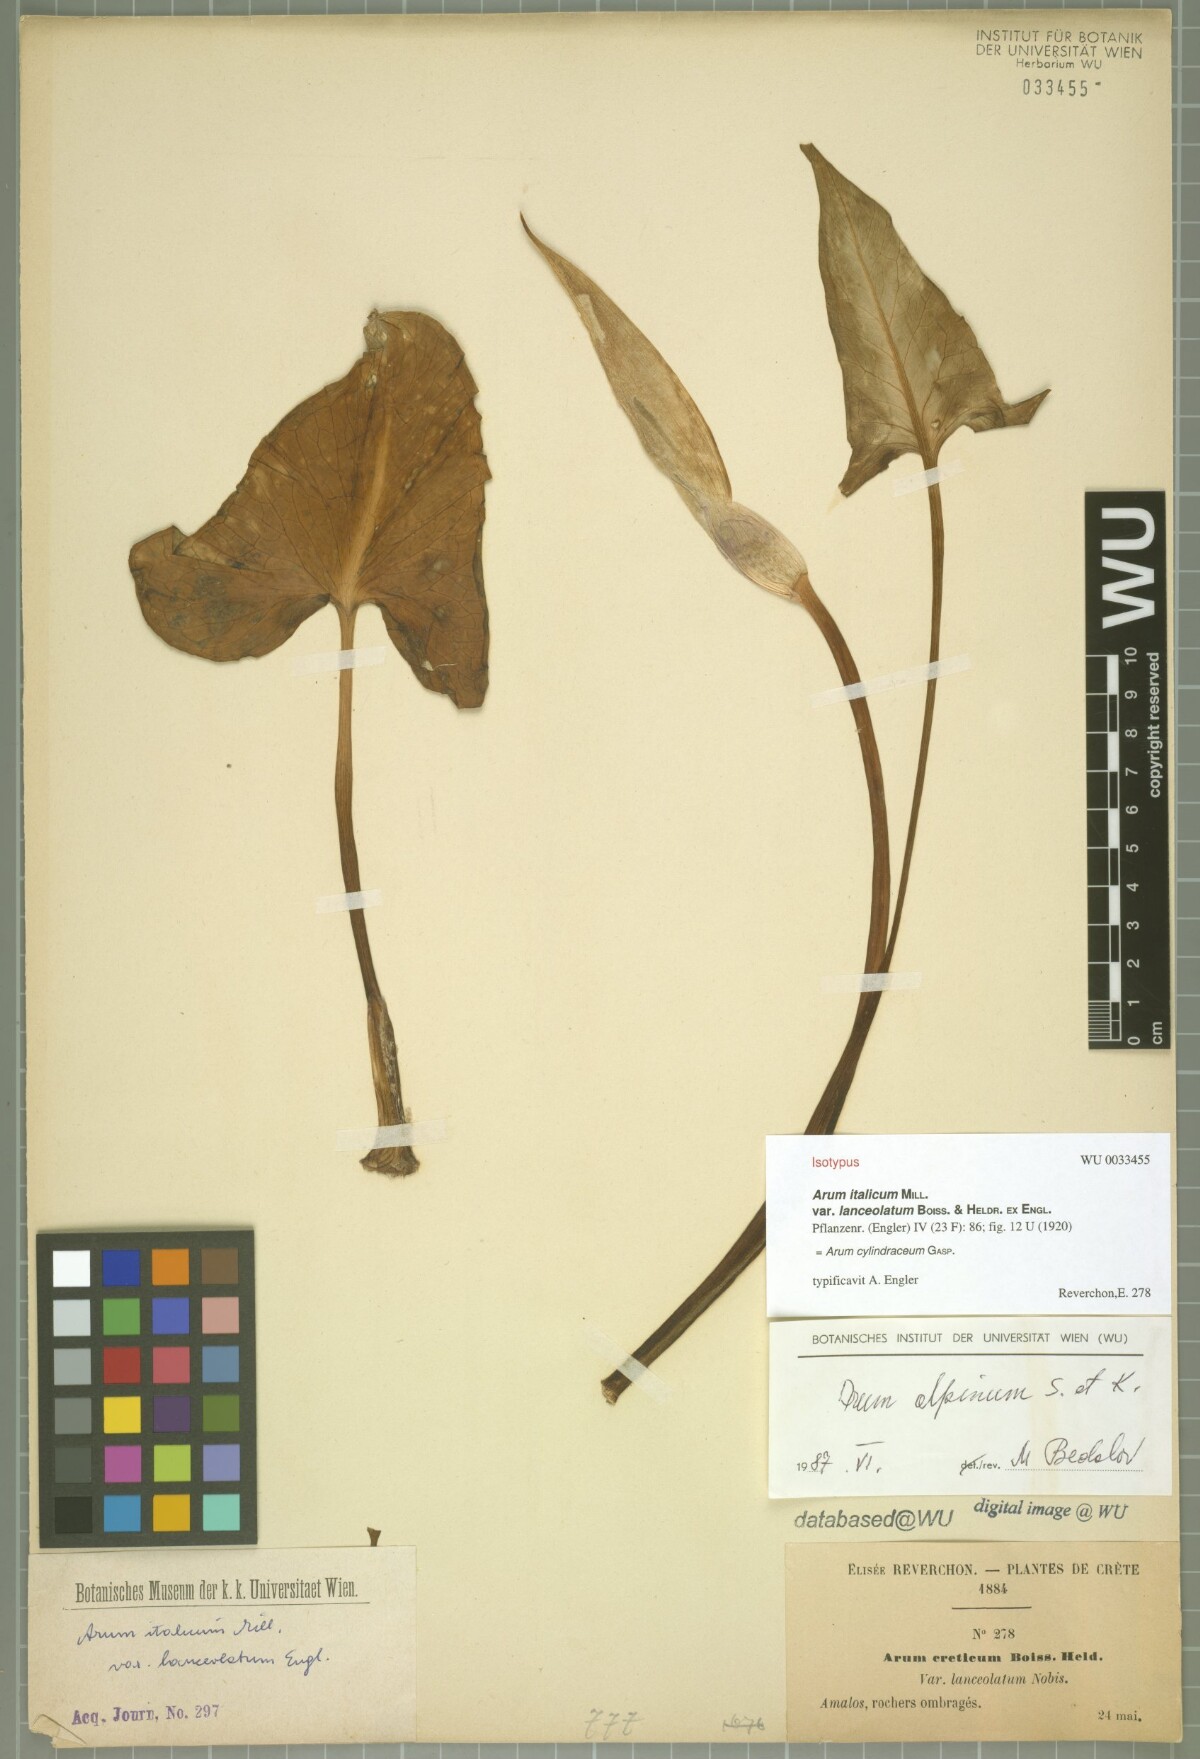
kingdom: Plantae
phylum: Tracheophyta
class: Liliopsida
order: Alismatales
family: Araceae
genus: Arum
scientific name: Arum cylindraceum
